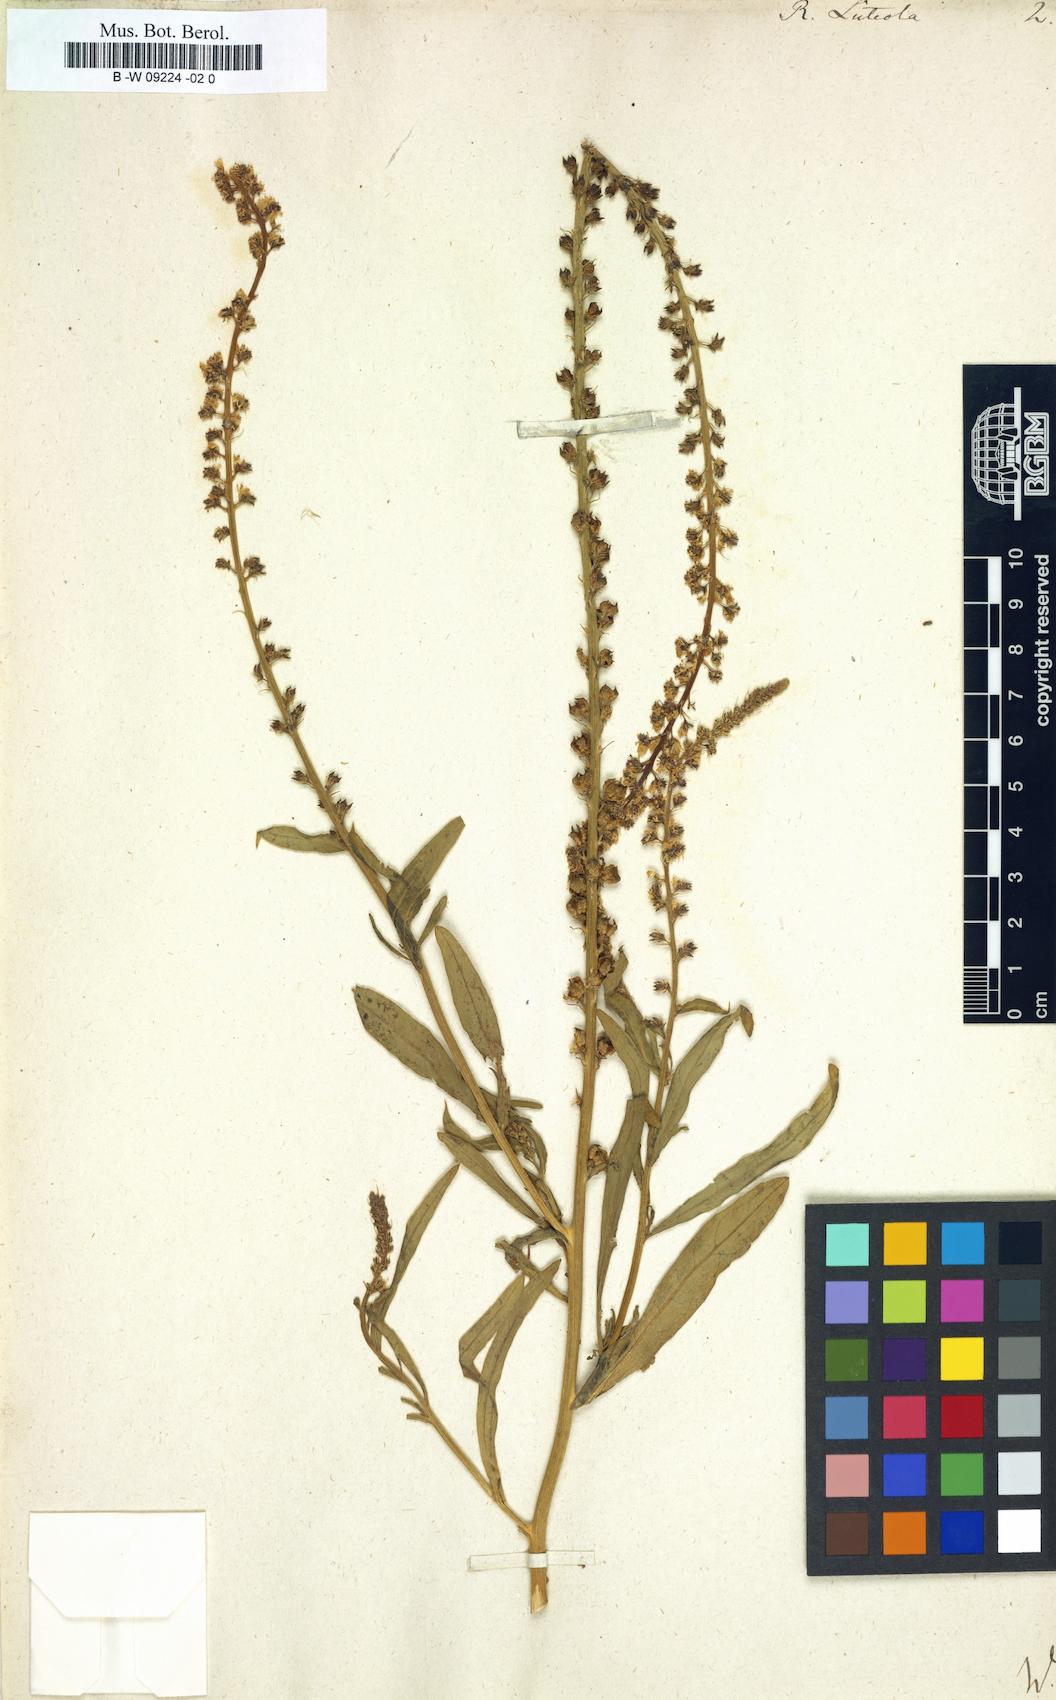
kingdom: Plantae
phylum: Tracheophyta
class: Magnoliopsida
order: Brassicales
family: Resedaceae
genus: Reseda
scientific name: Reseda luteola
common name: Weld
